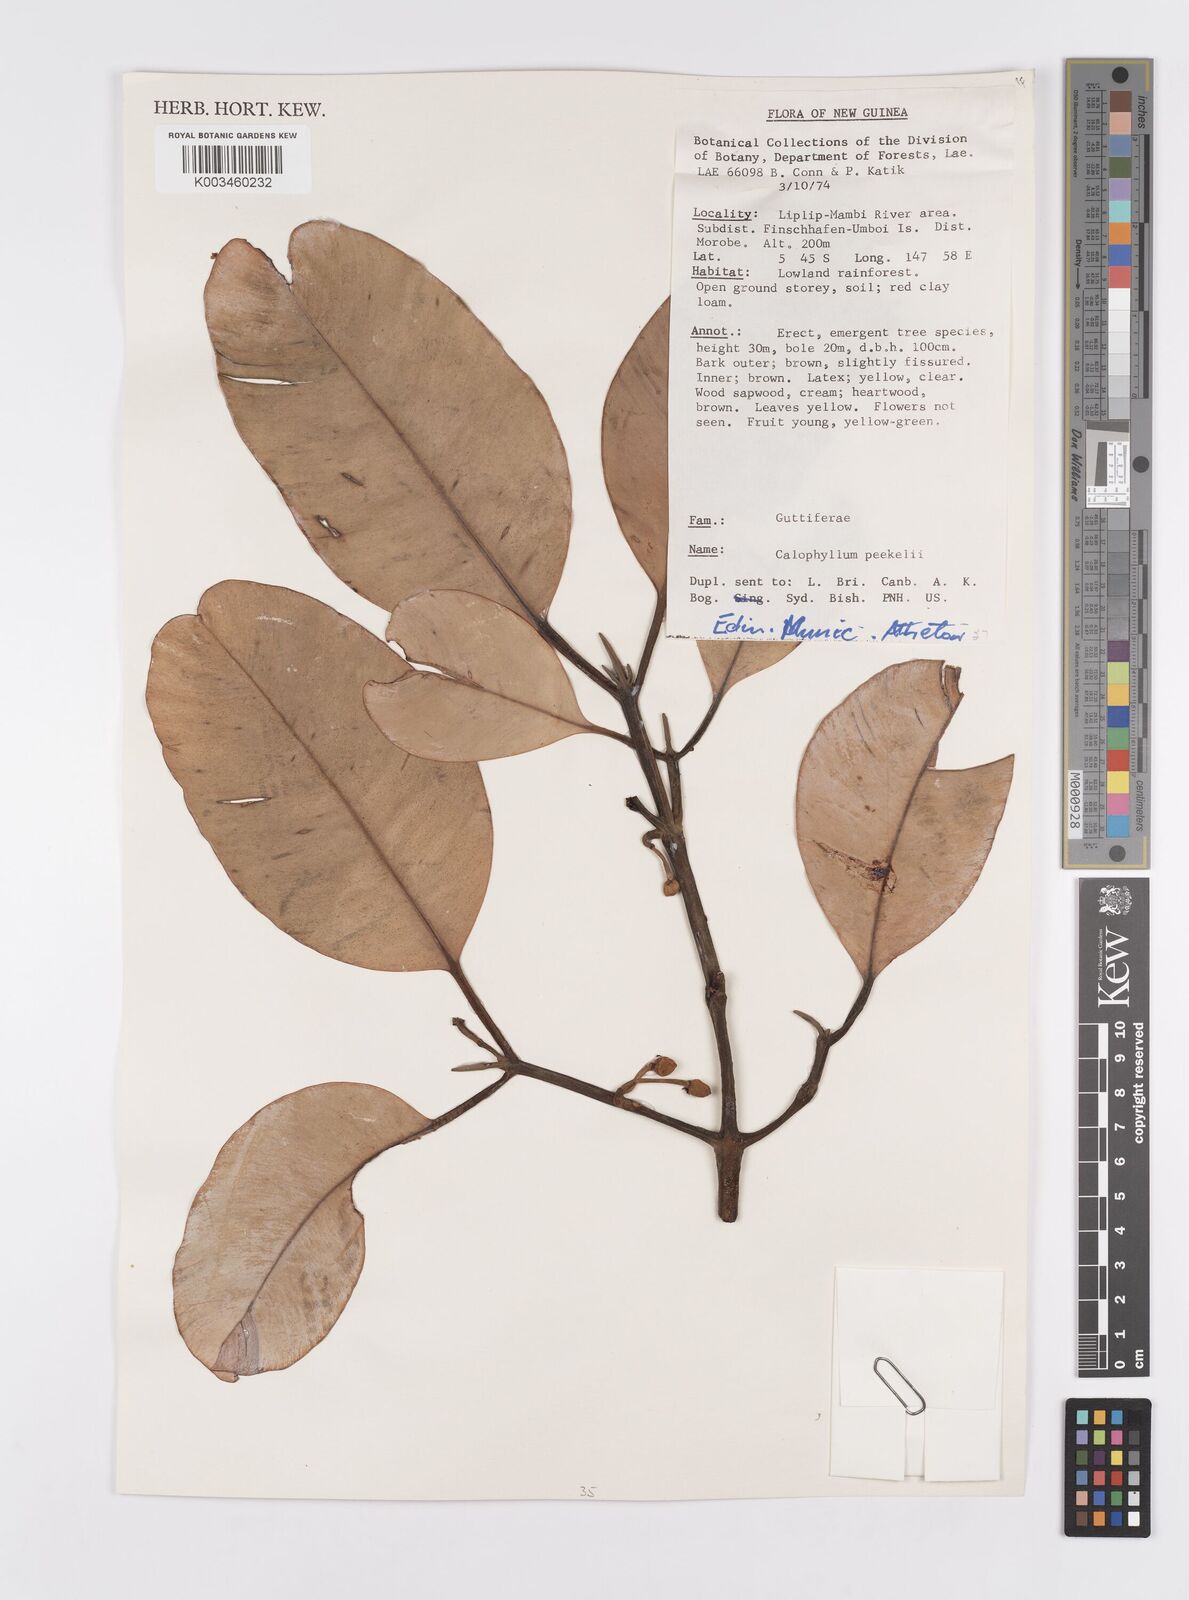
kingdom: Plantae
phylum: Tracheophyta
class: Magnoliopsida
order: Malpighiales
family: Calophyllaceae
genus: Calophyllum
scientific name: Calophyllum peekelii
